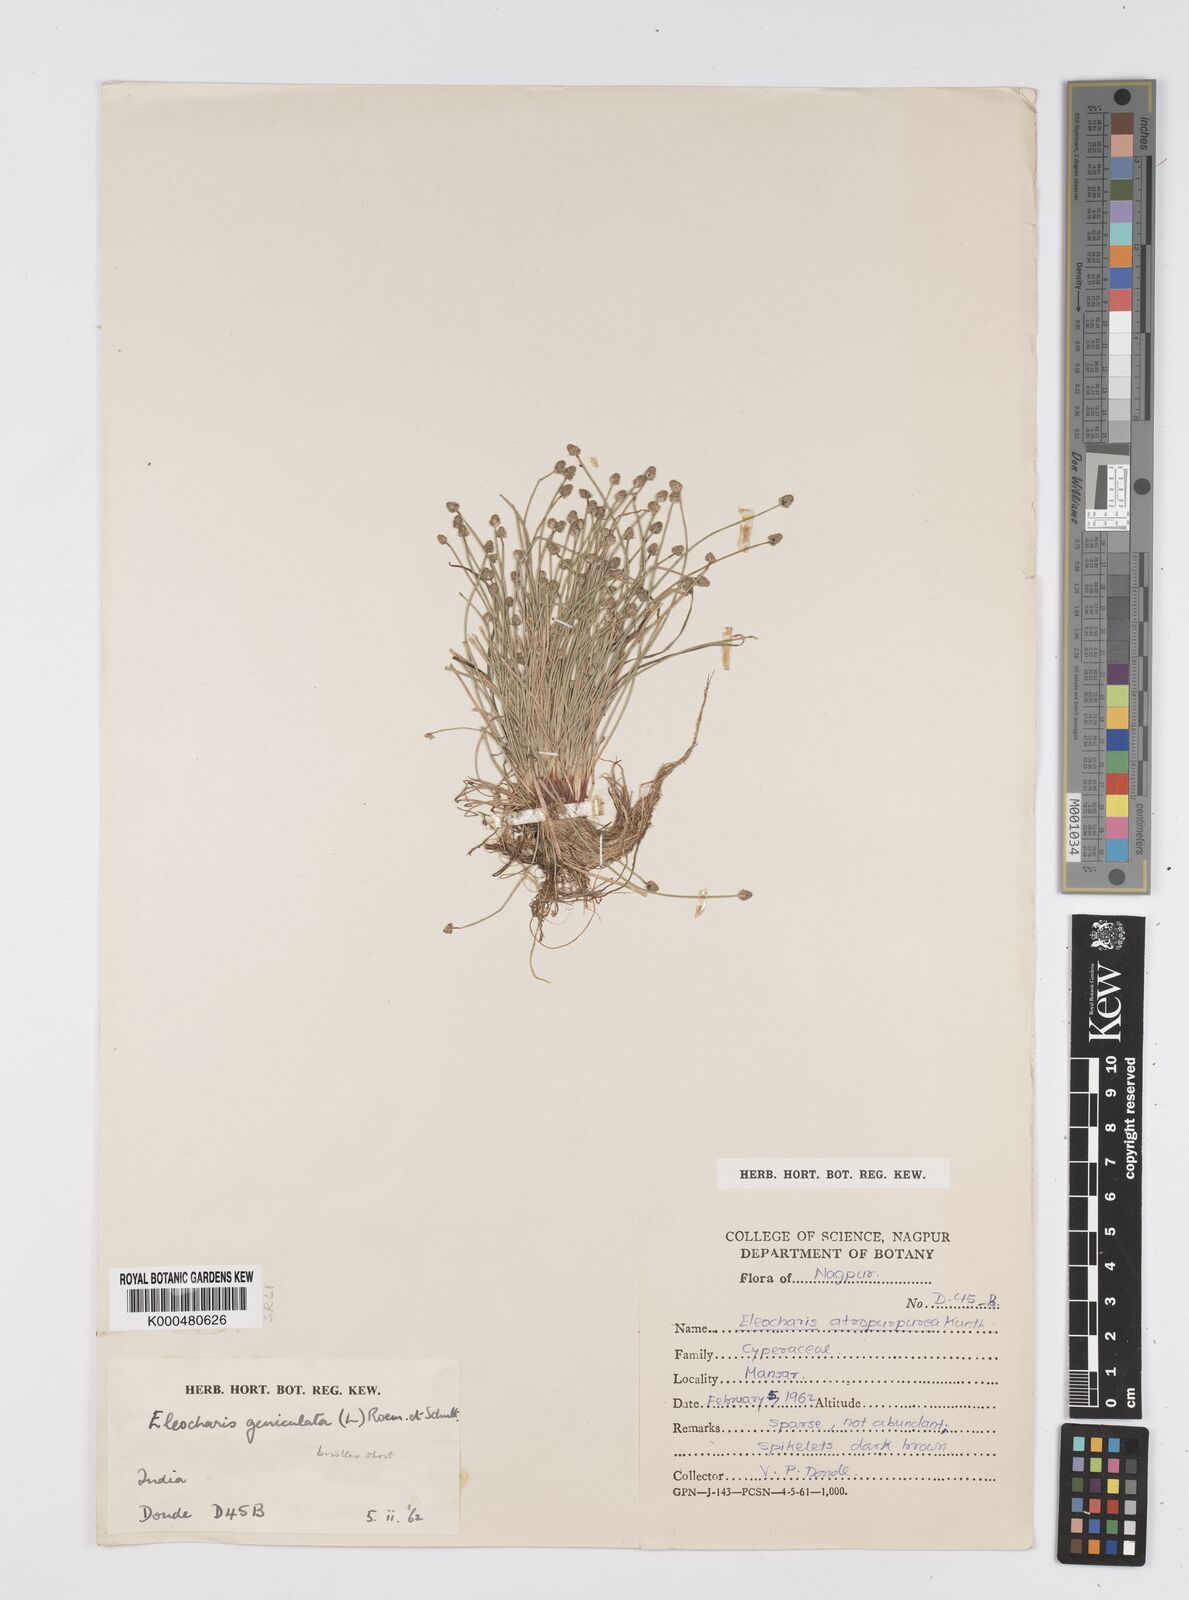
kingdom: Plantae
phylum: Tracheophyta
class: Liliopsida
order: Poales
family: Cyperaceae
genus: Eleocharis
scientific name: Eleocharis geniculata
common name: Canada spikesedge
